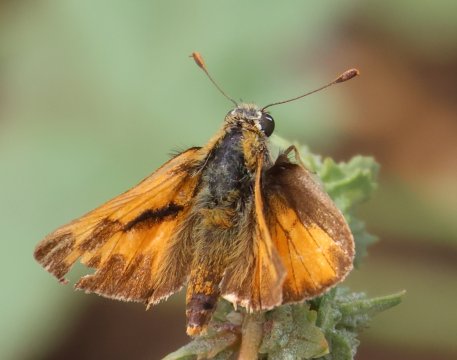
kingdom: Animalia
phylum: Arthropoda
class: Insecta
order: Lepidoptera
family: Hesperiidae
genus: Ochlodes
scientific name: Ochlodes sylvanoides
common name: Woodland Skipper
